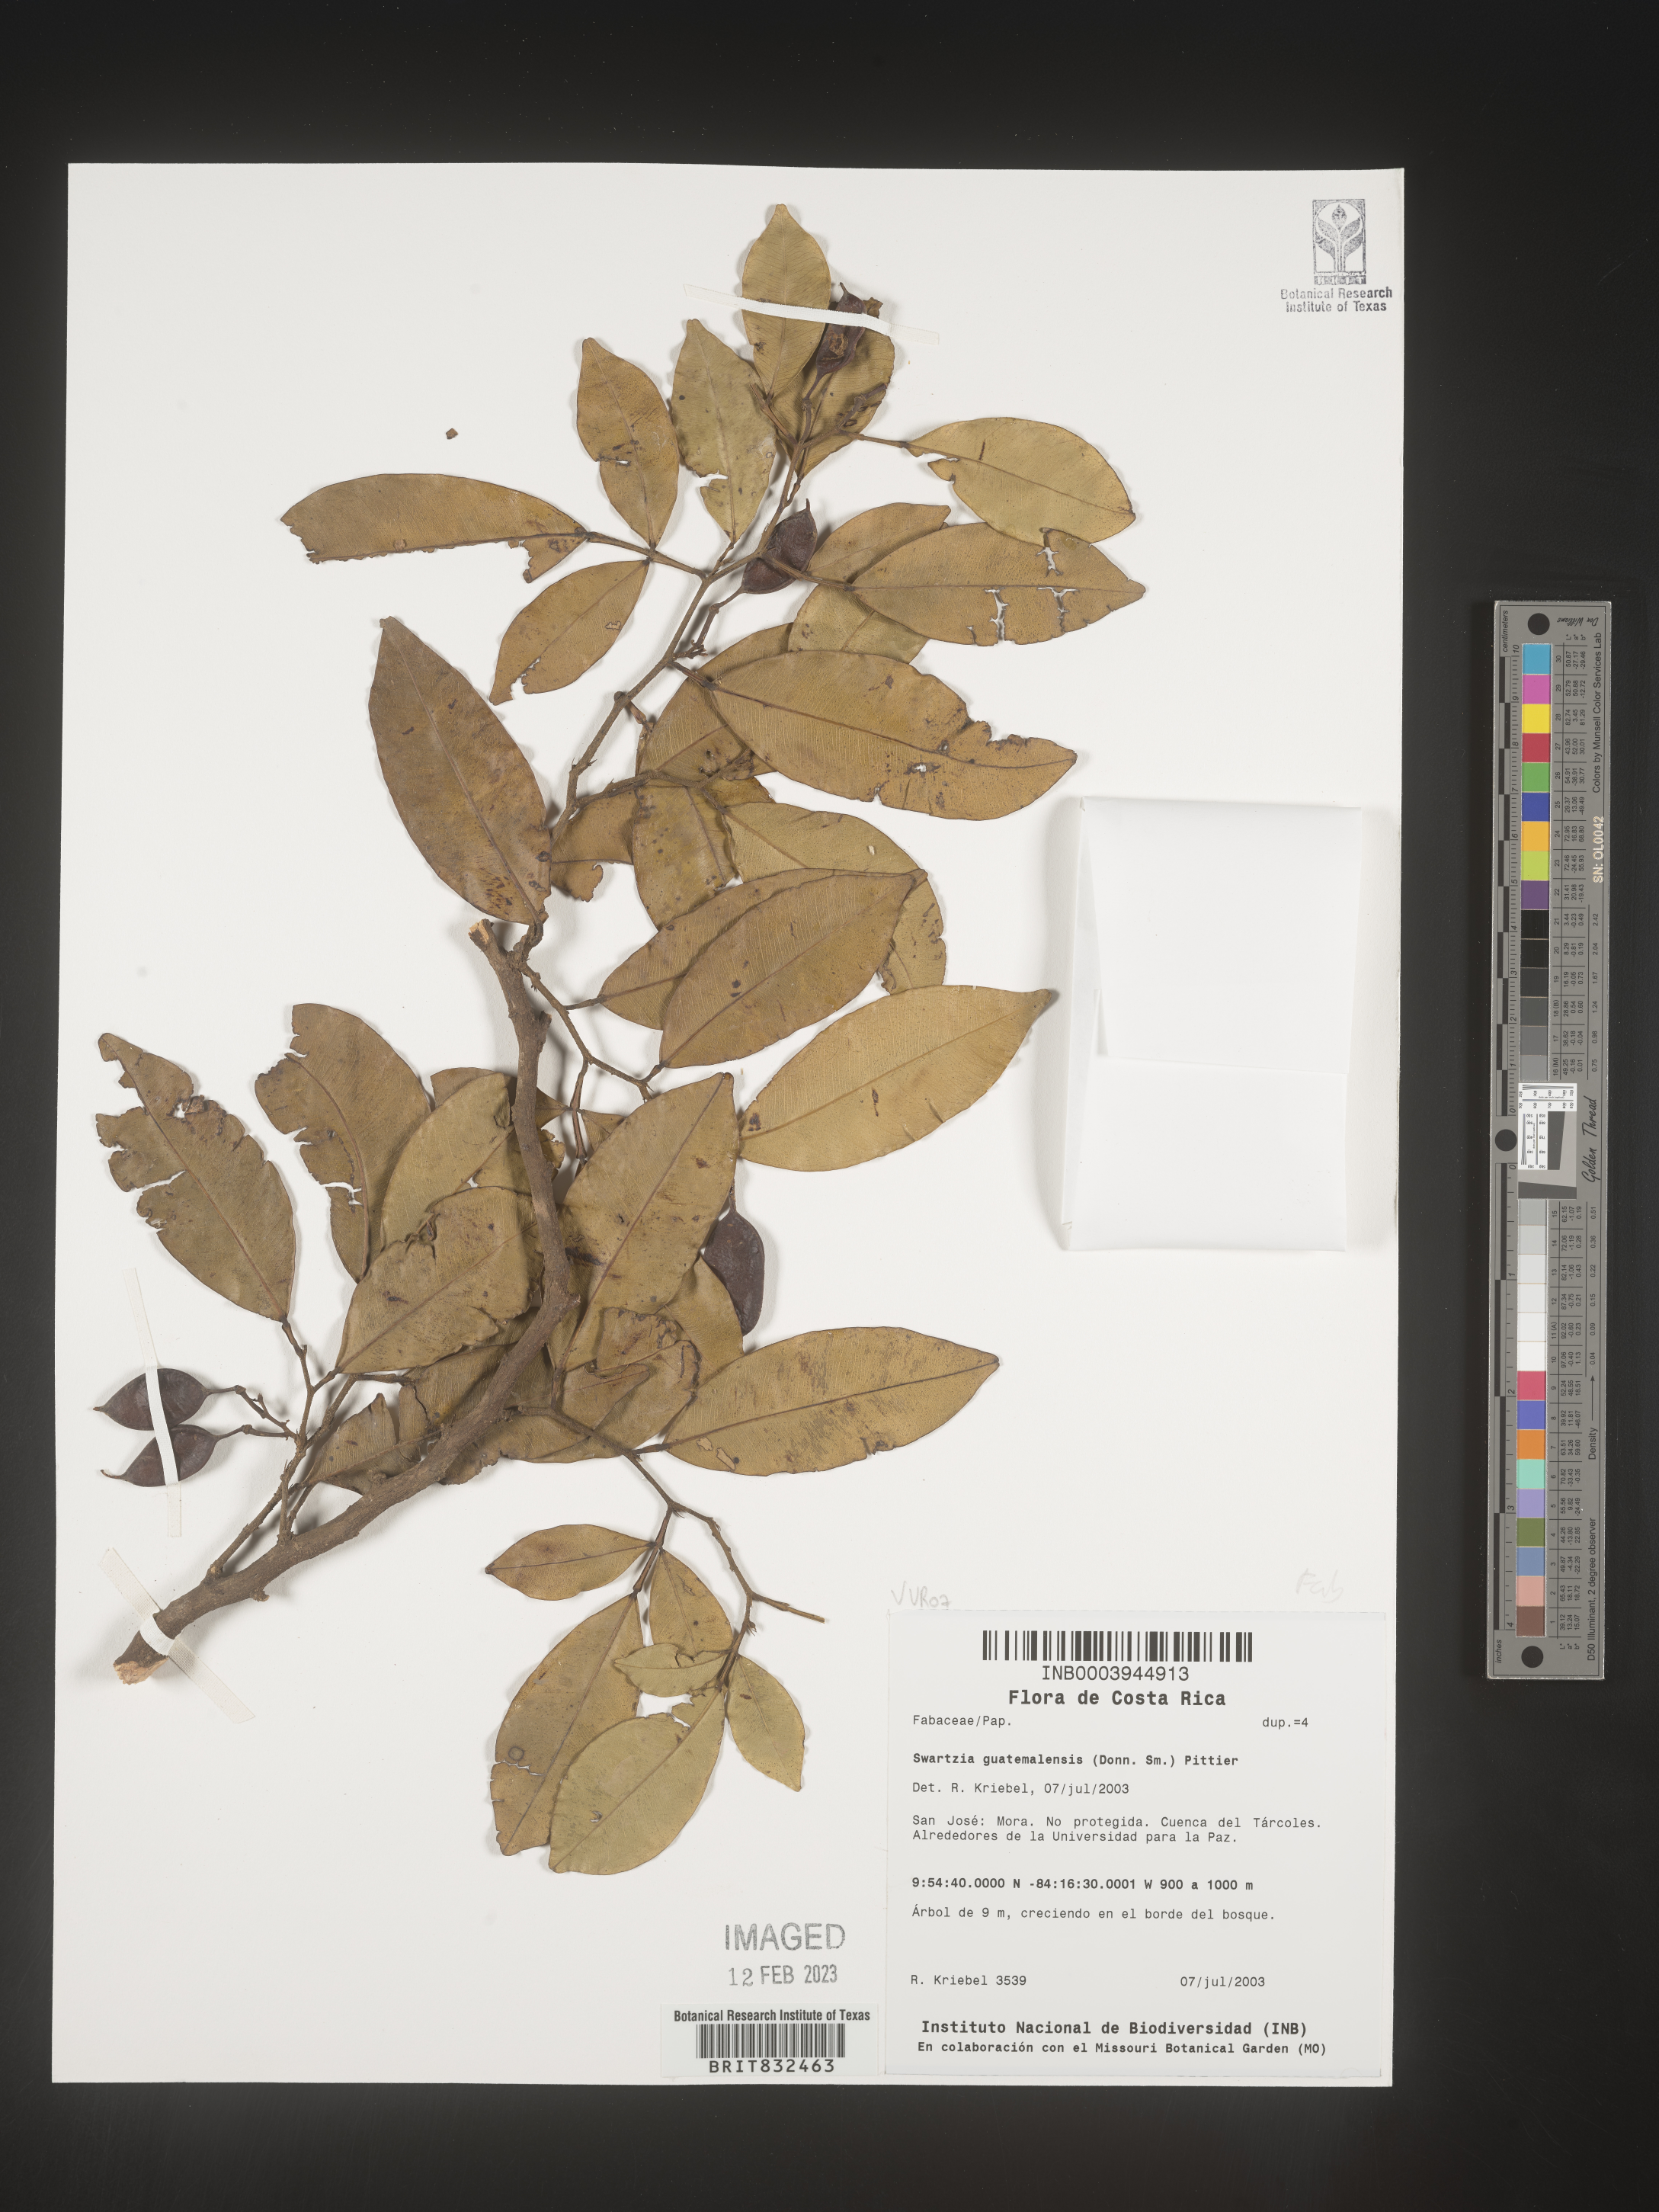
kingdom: Plantae
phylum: Tracheophyta
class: Magnoliopsida
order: Fabales
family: Fabaceae
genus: Swartzia
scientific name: Swartzia
